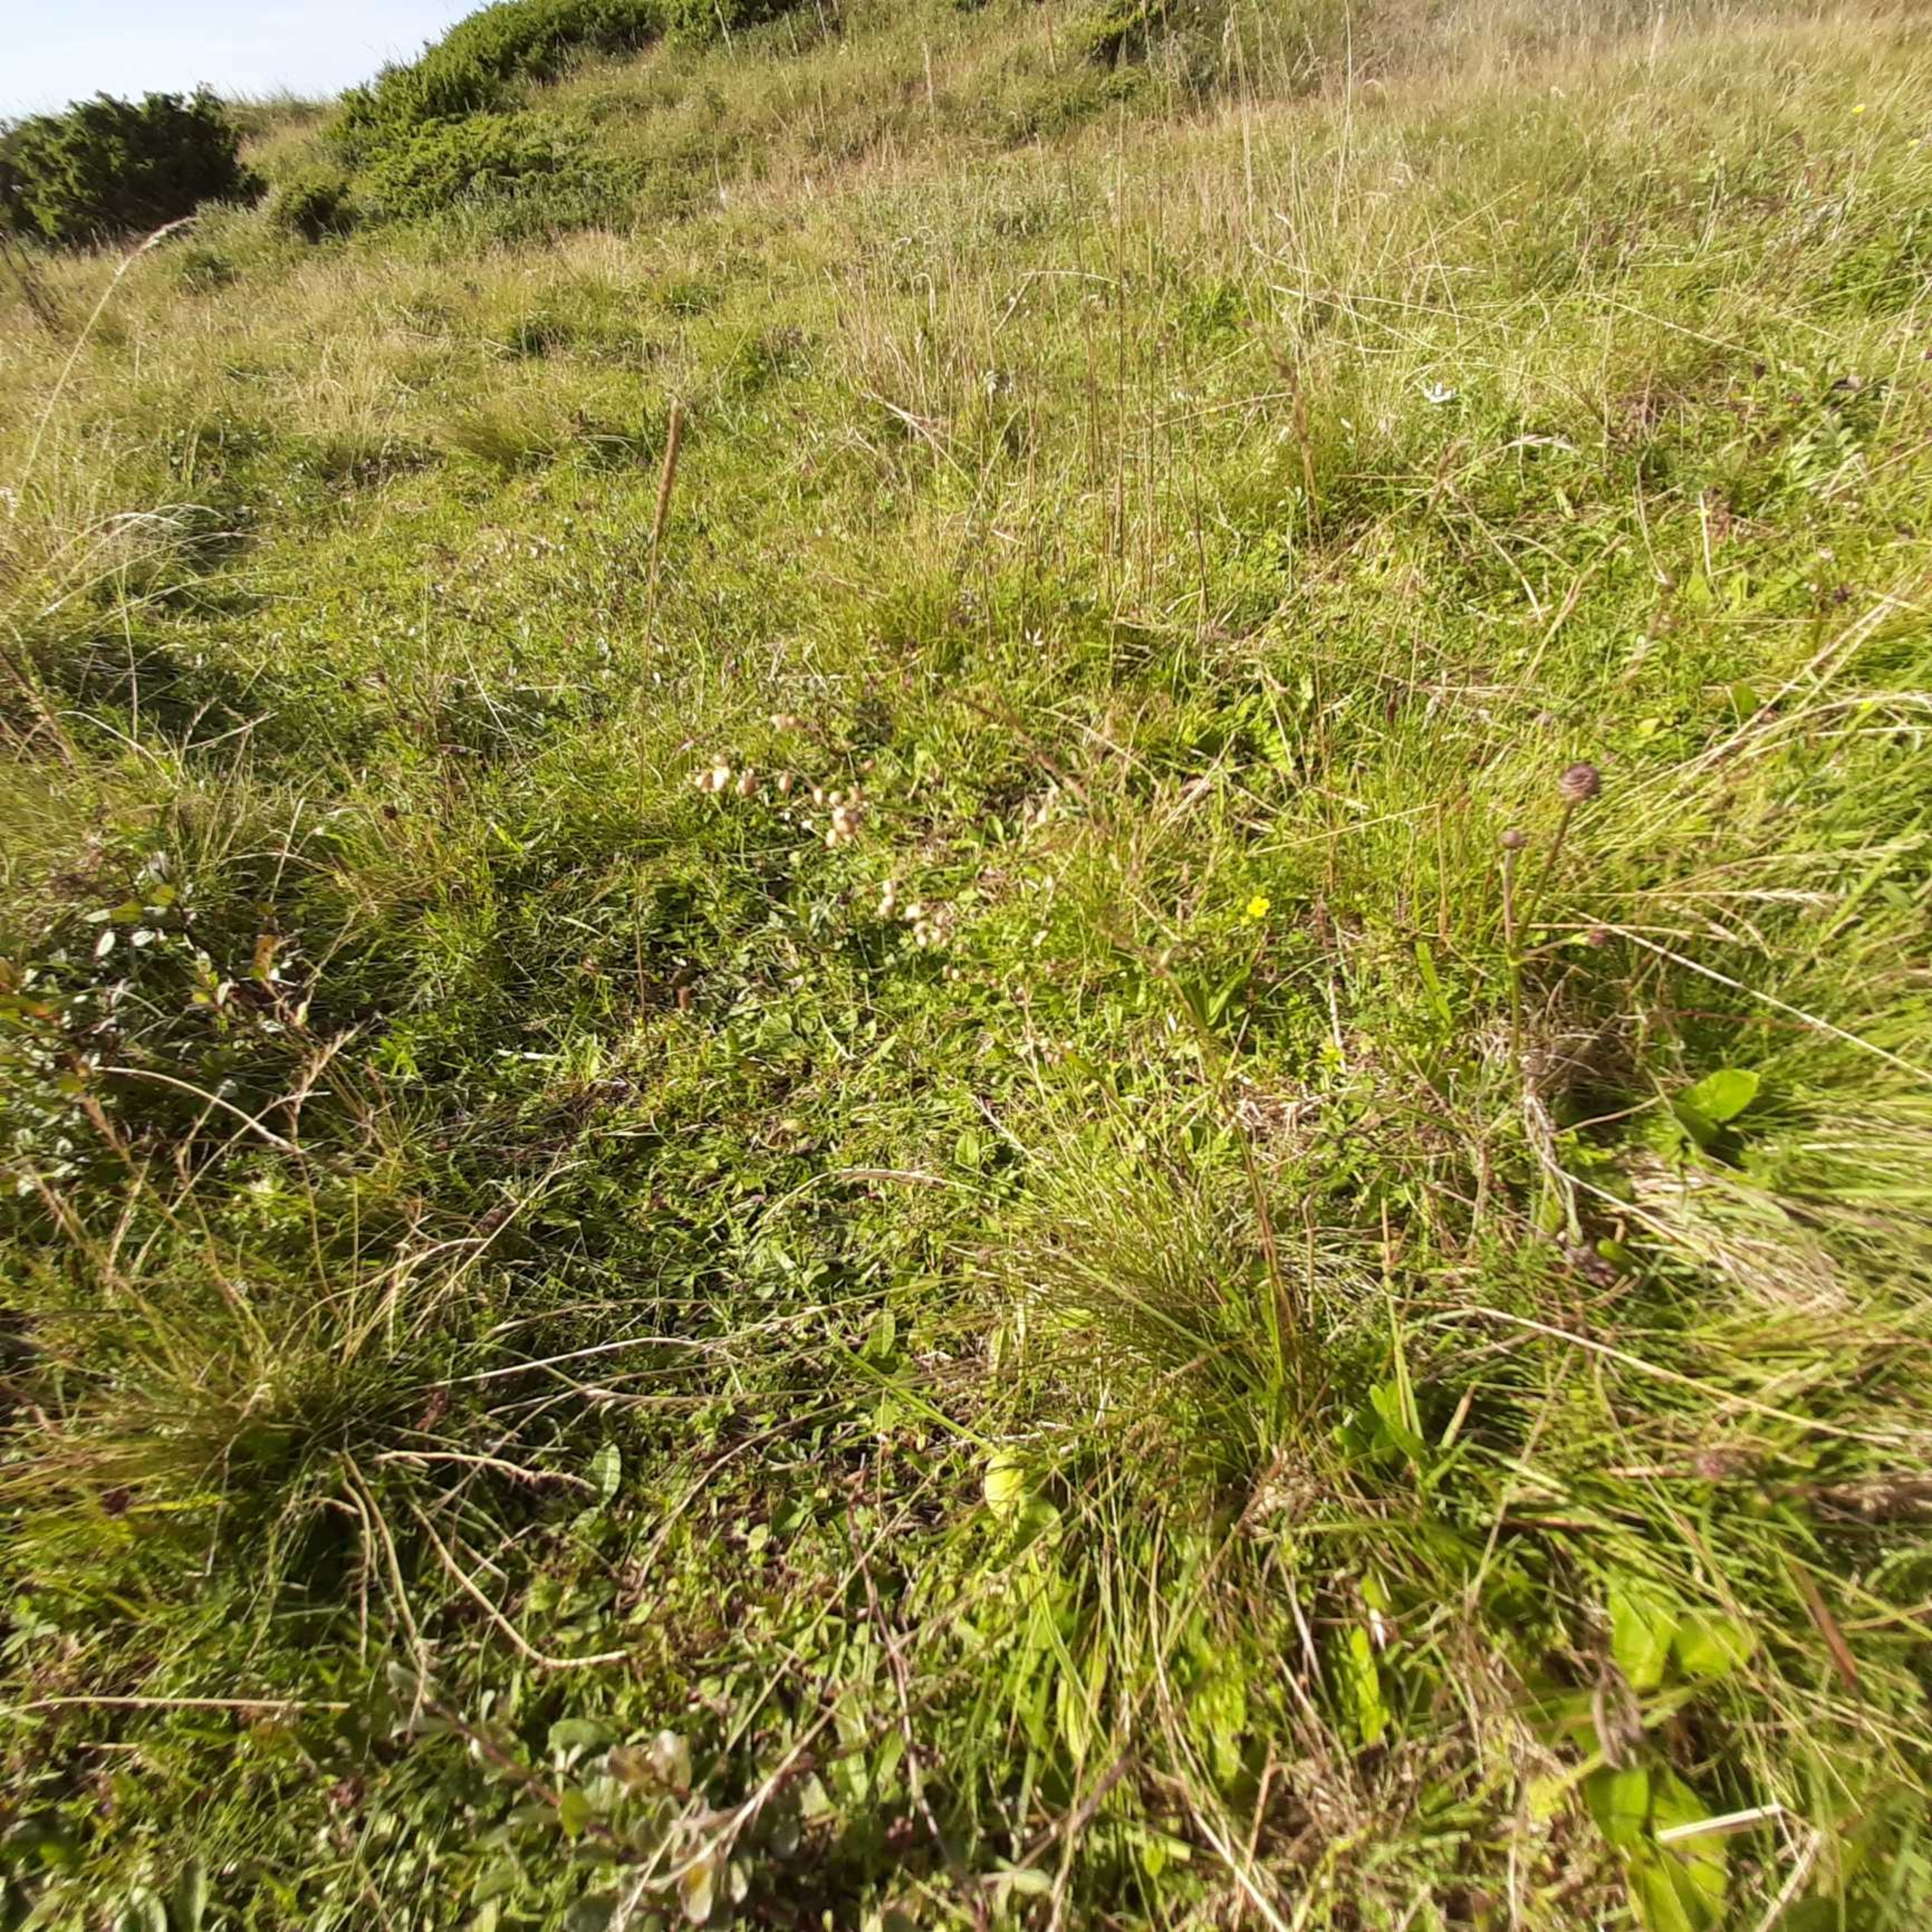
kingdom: Plantae
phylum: Tracheophyta
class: Liliopsida
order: Poales
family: Poaceae
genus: Briza
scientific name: Briza media
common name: Hjertegræs
